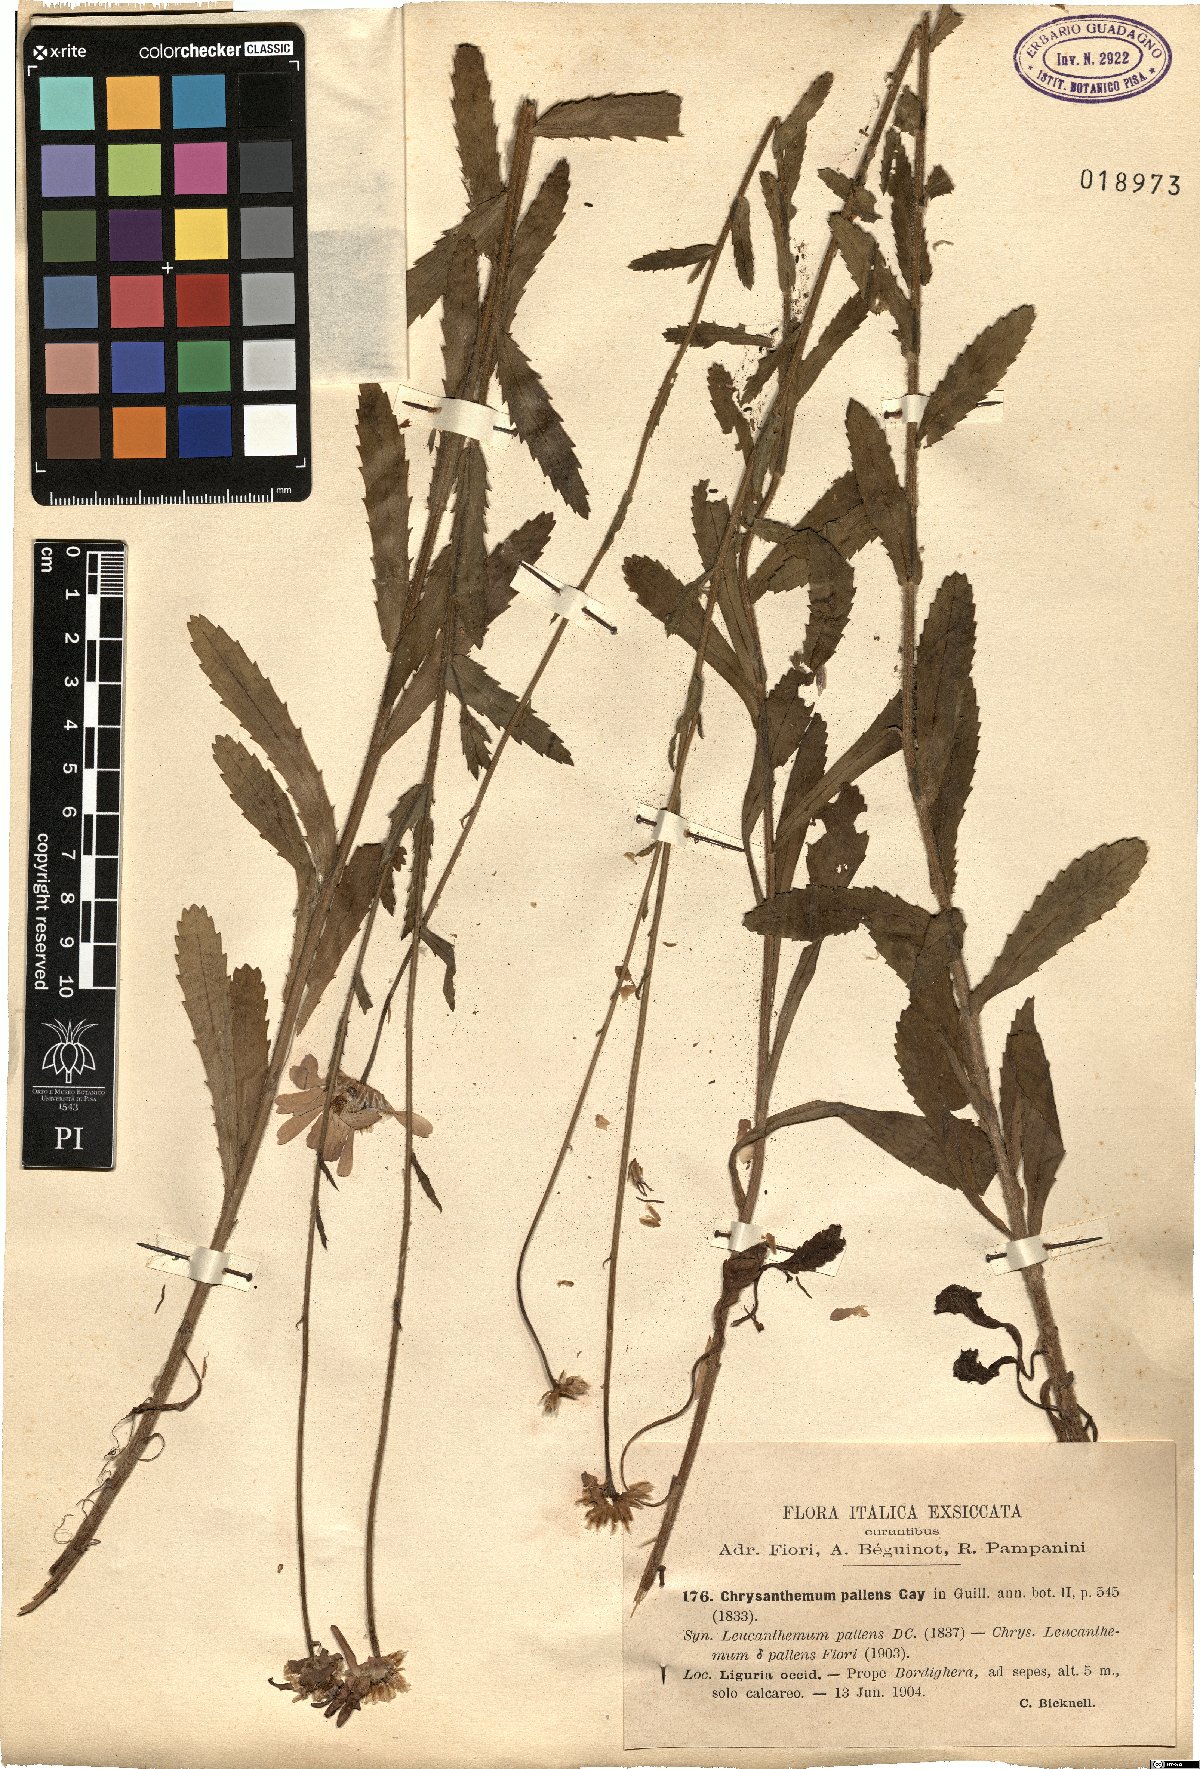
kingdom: Plantae
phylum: Tracheophyta
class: Magnoliopsida
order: Asterales
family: Asteraceae
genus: Leucanthemum
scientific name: Leucanthemum pallens
